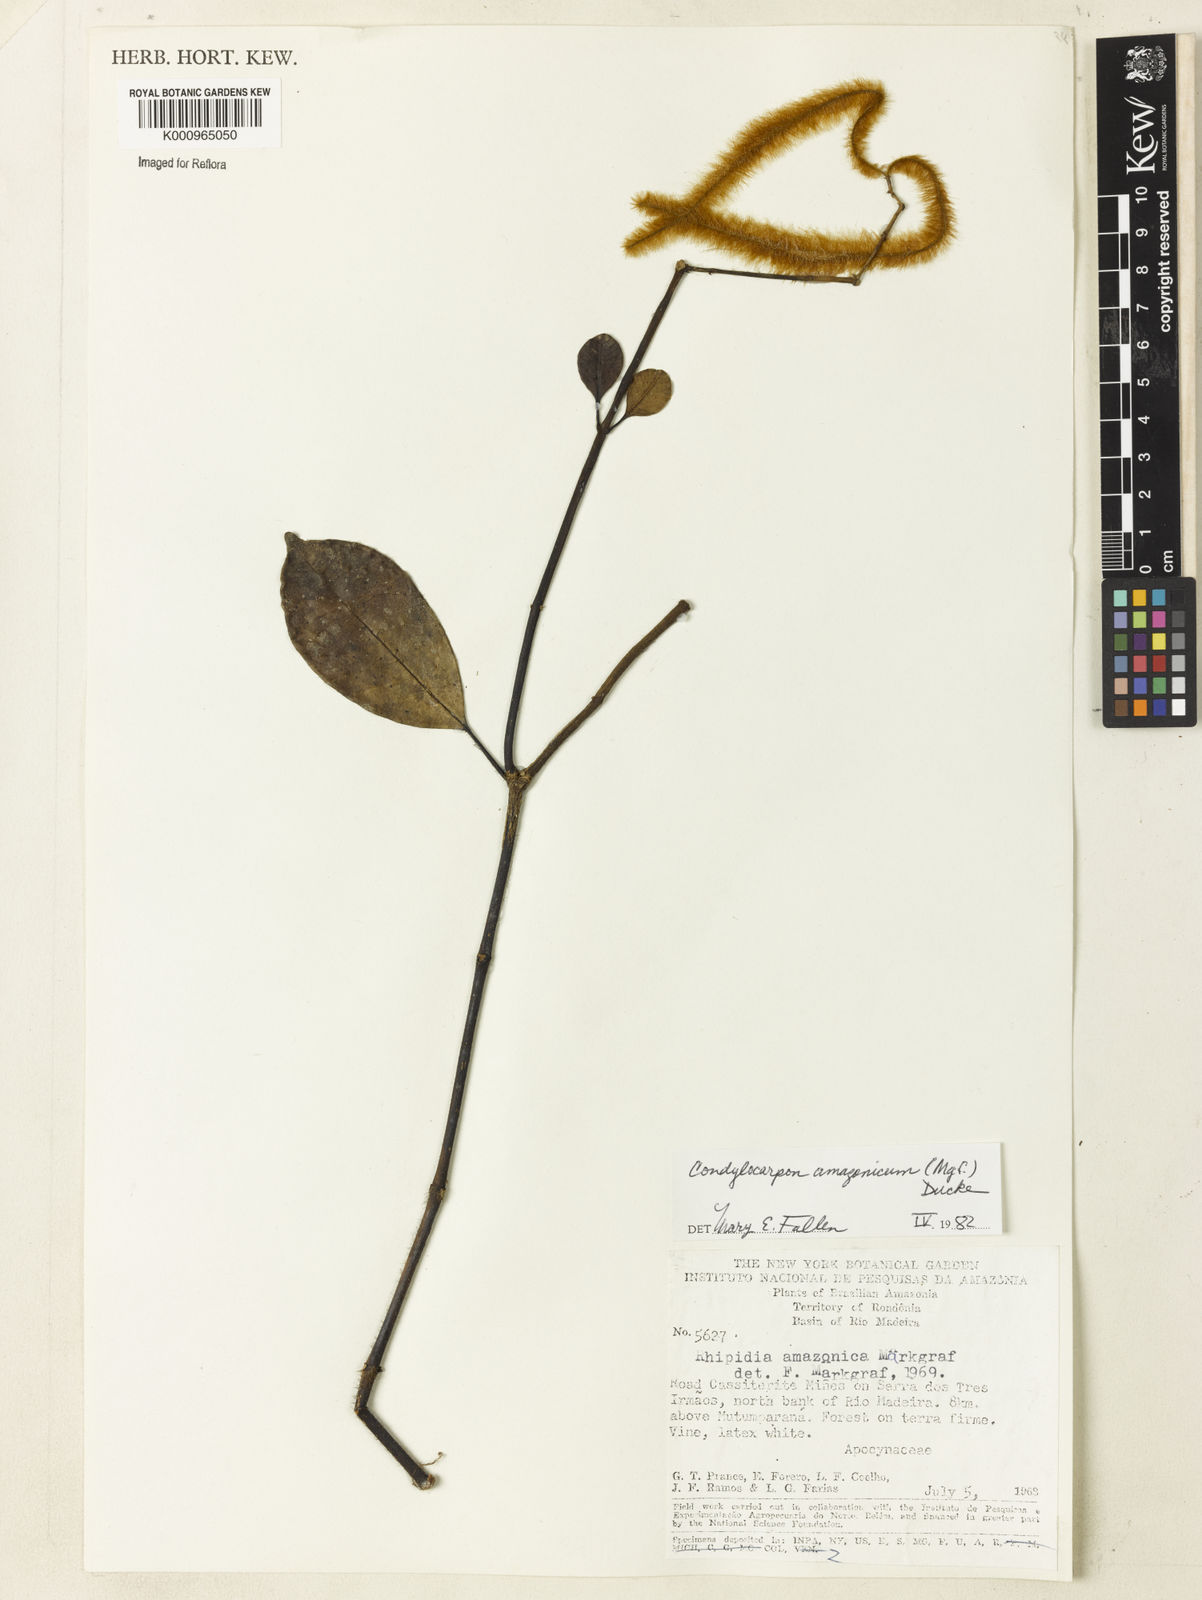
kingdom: Plantae
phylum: Tracheophyta
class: Magnoliopsida
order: Gentianales
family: Apocynaceae
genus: Condylocarpon
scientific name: Condylocarpon amazonicum
